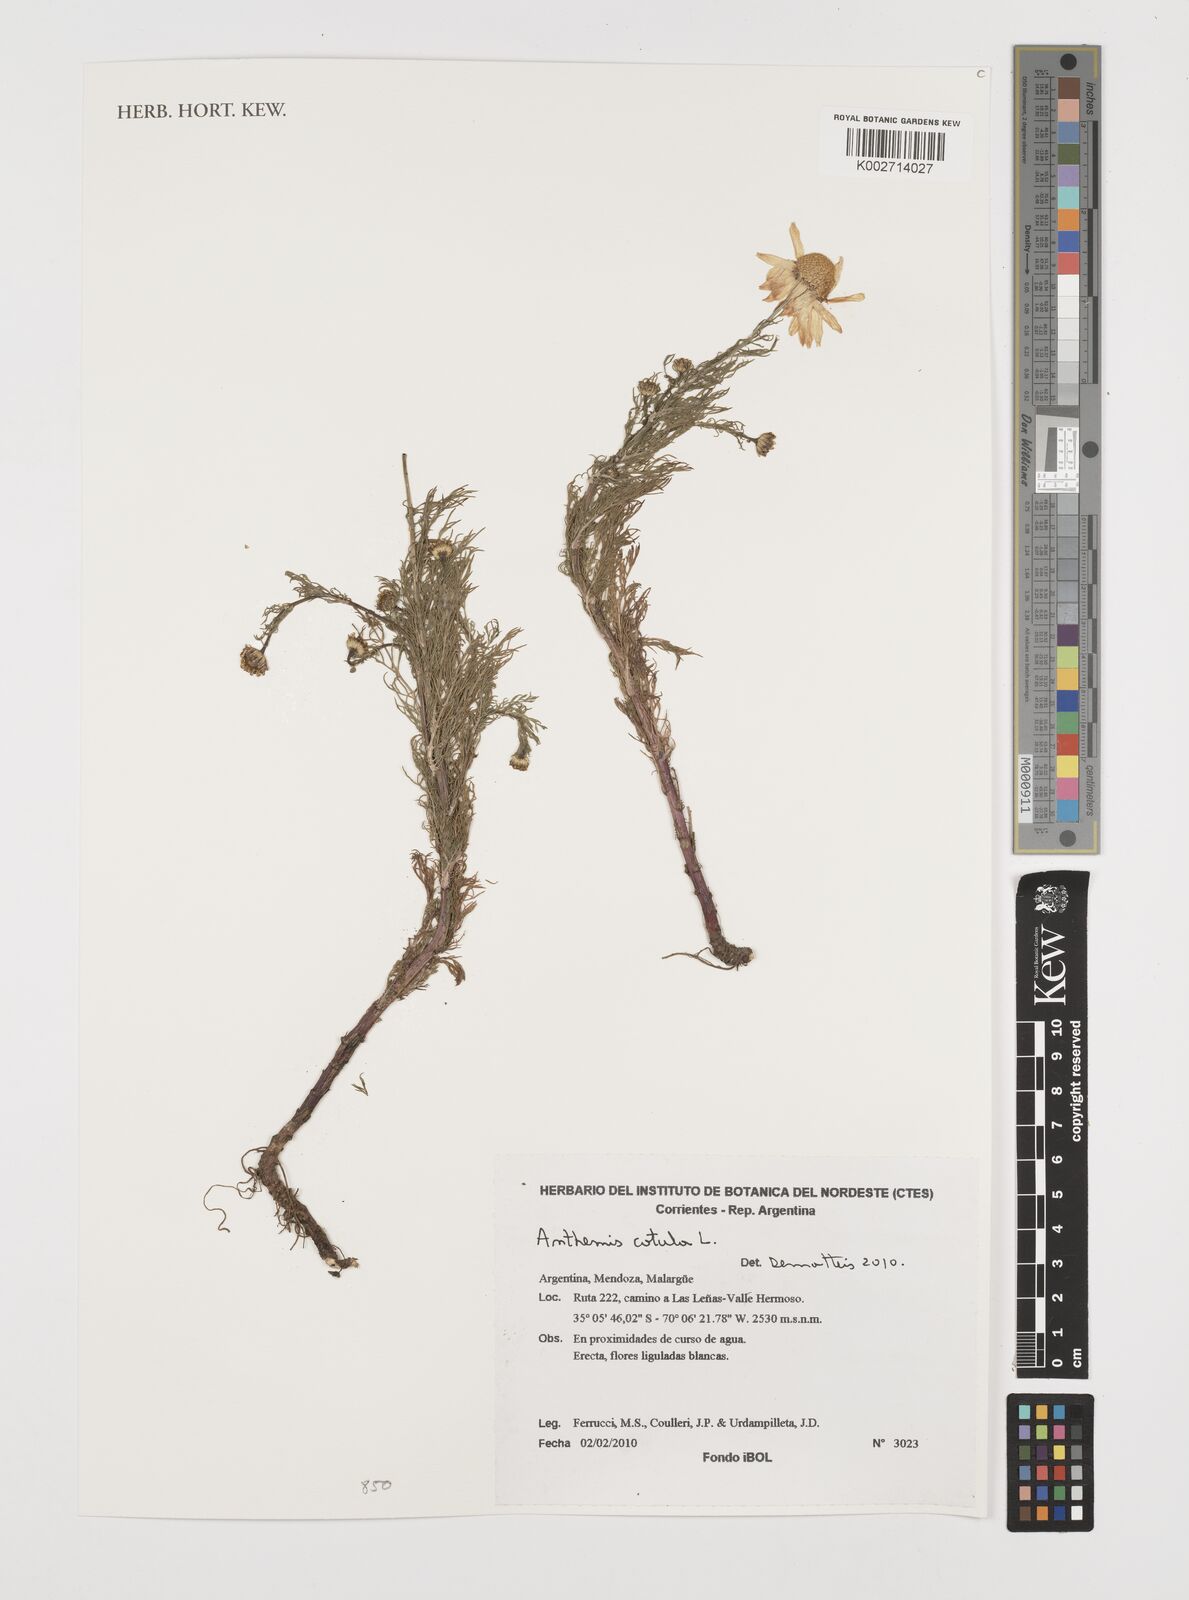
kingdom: Plantae
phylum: Tracheophyta
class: Magnoliopsida
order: Asterales
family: Asteraceae
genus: Anthemis
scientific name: Anthemis cotula
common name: Stinking chamomile
